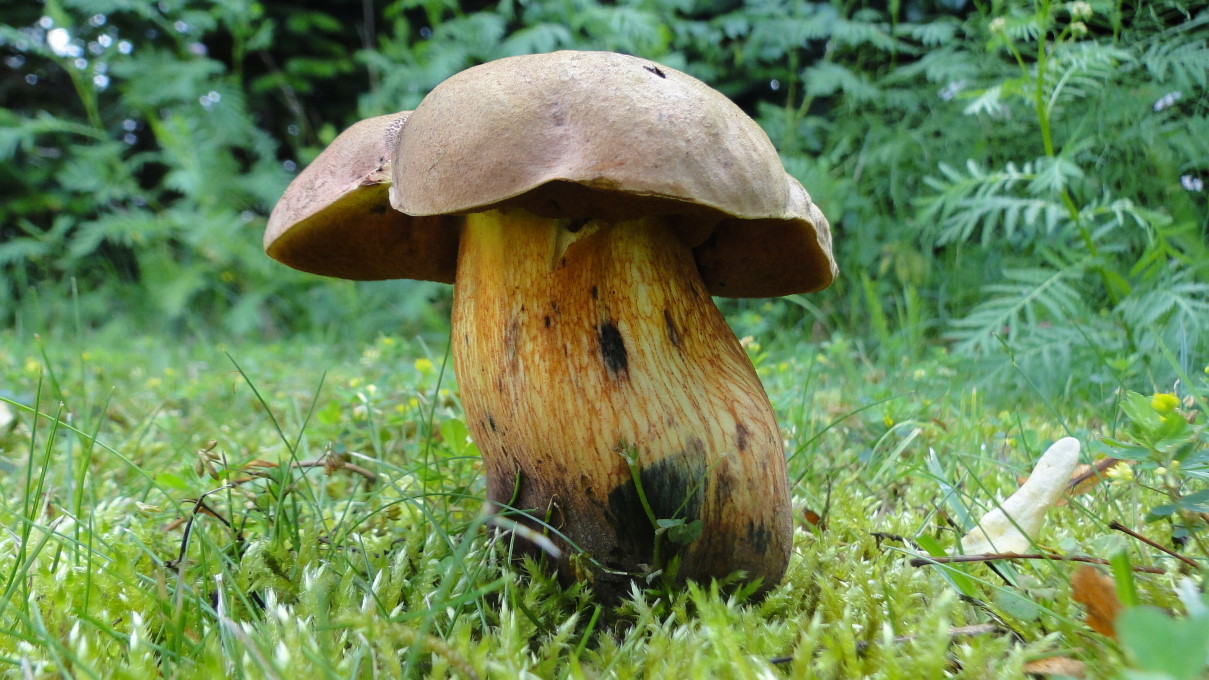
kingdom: Fungi
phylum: Basidiomycota
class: Agaricomycetes
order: Boletales
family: Boletaceae
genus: Suillellus
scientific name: Suillellus luridus
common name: netstokket indigorørhat
